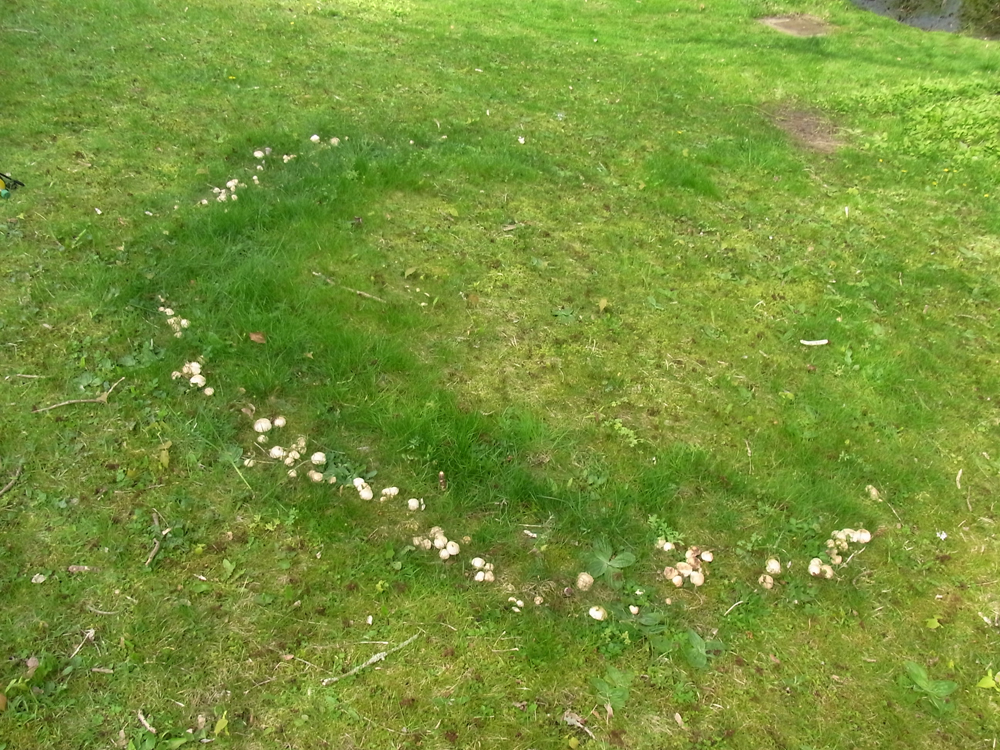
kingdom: Fungi
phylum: Basidiomycota
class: Agaricomycetes
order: Agaricales
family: Lyophyllaceae
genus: Calocybe
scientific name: Calocybe gambosa
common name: St. george's mushroom
